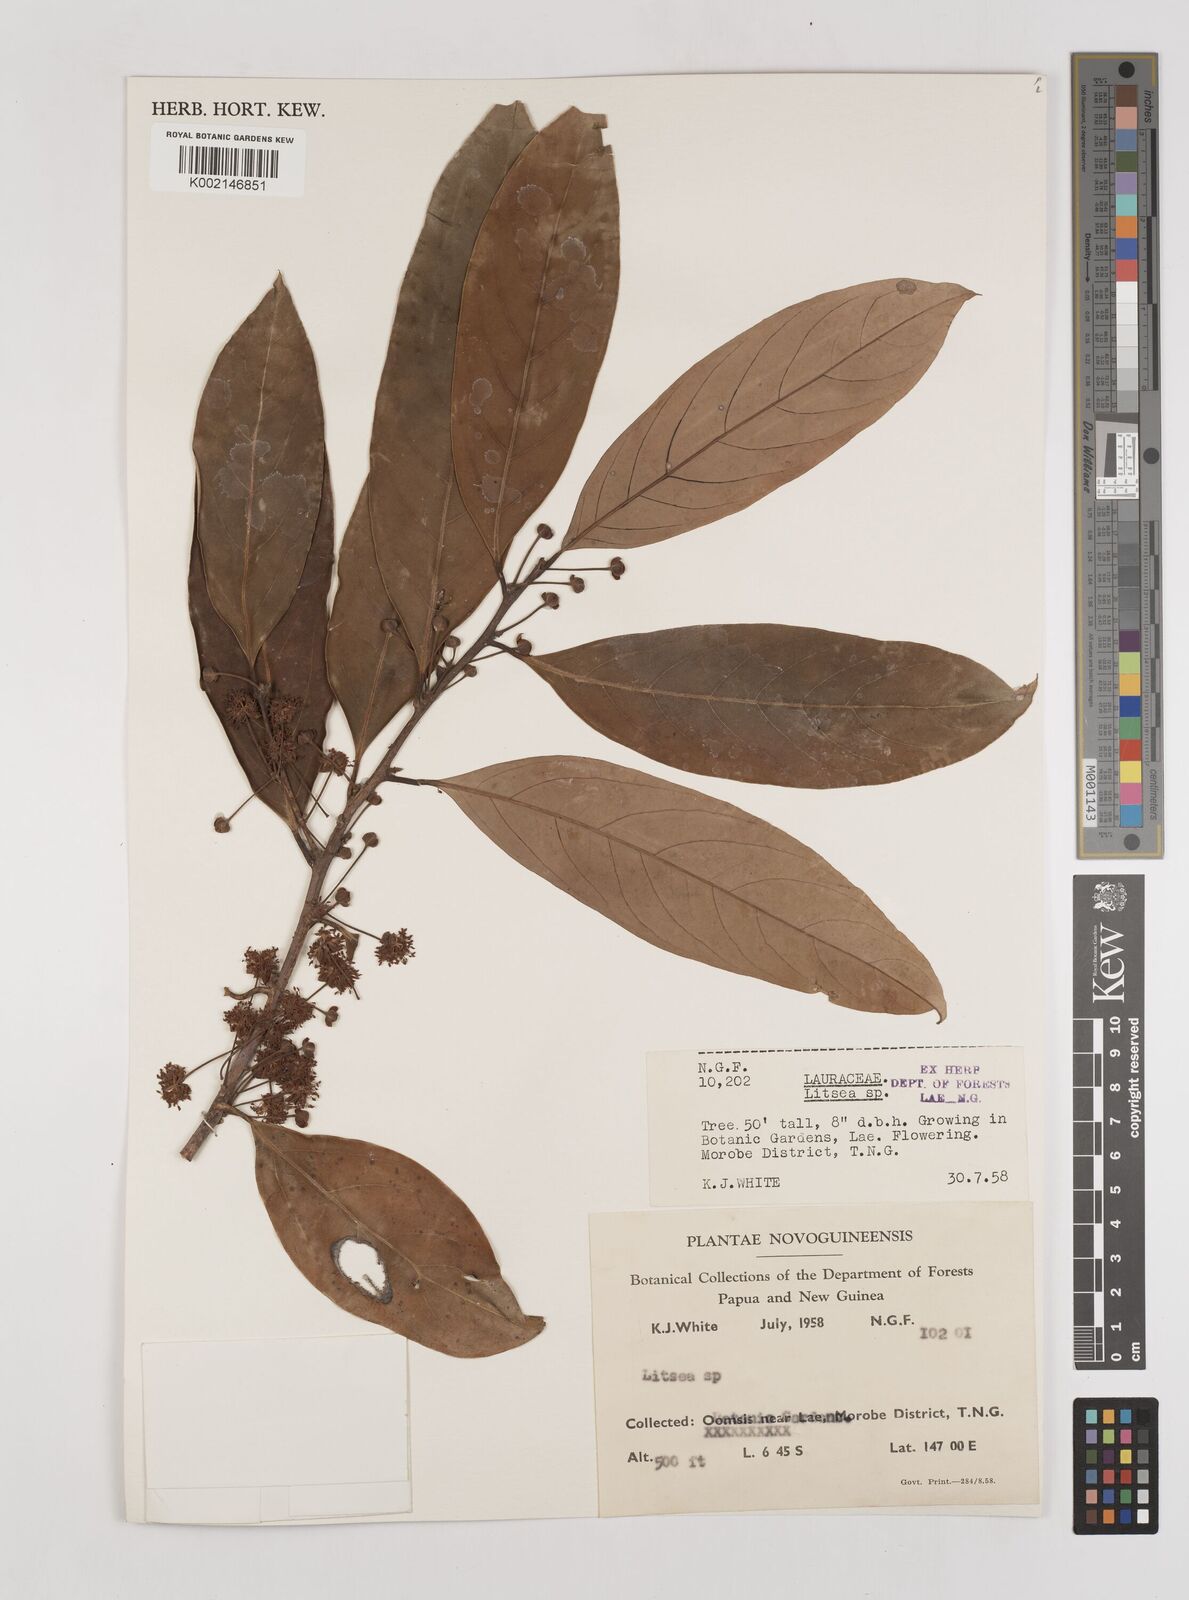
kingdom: Plantae
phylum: Tracheophyta
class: Magnoliopsida
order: Laurales
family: Lauraceae
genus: Litsea
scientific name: Litsea
